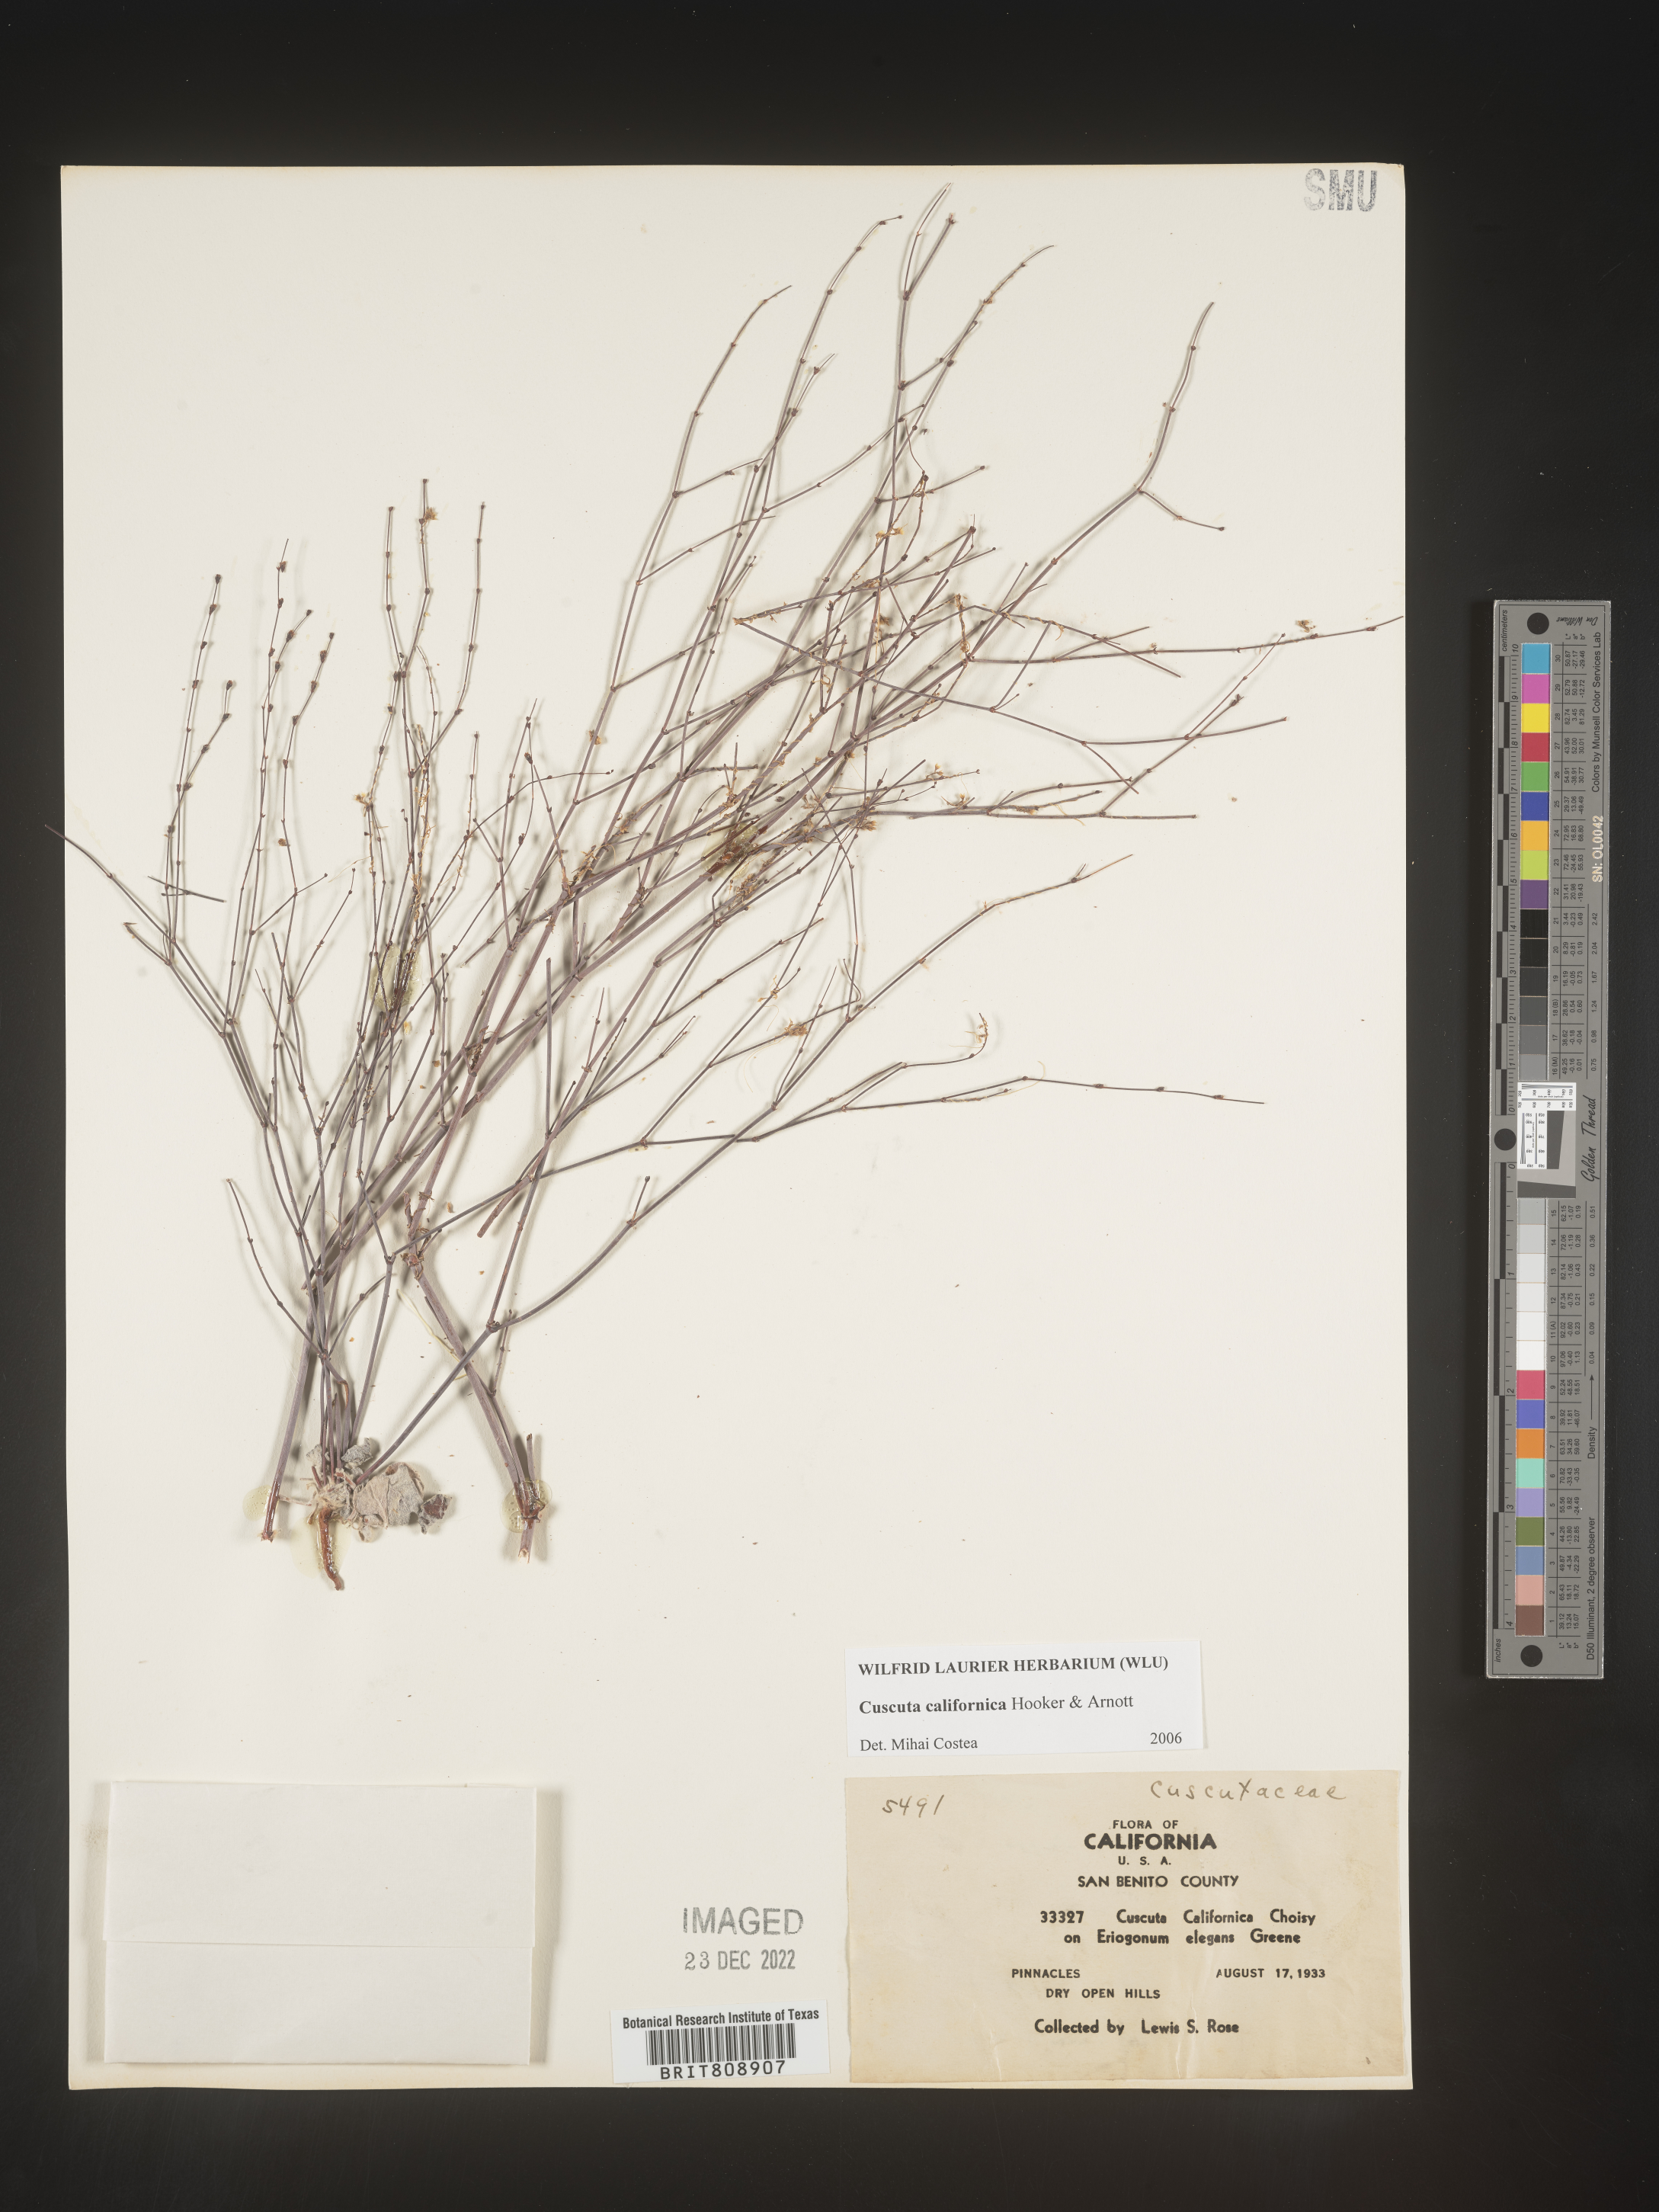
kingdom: Plantae
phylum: Tracheophyta
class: Magnoliopsida
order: Solanales
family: Convolvulaceae
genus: Cuscuta
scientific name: Cuscuta californica
